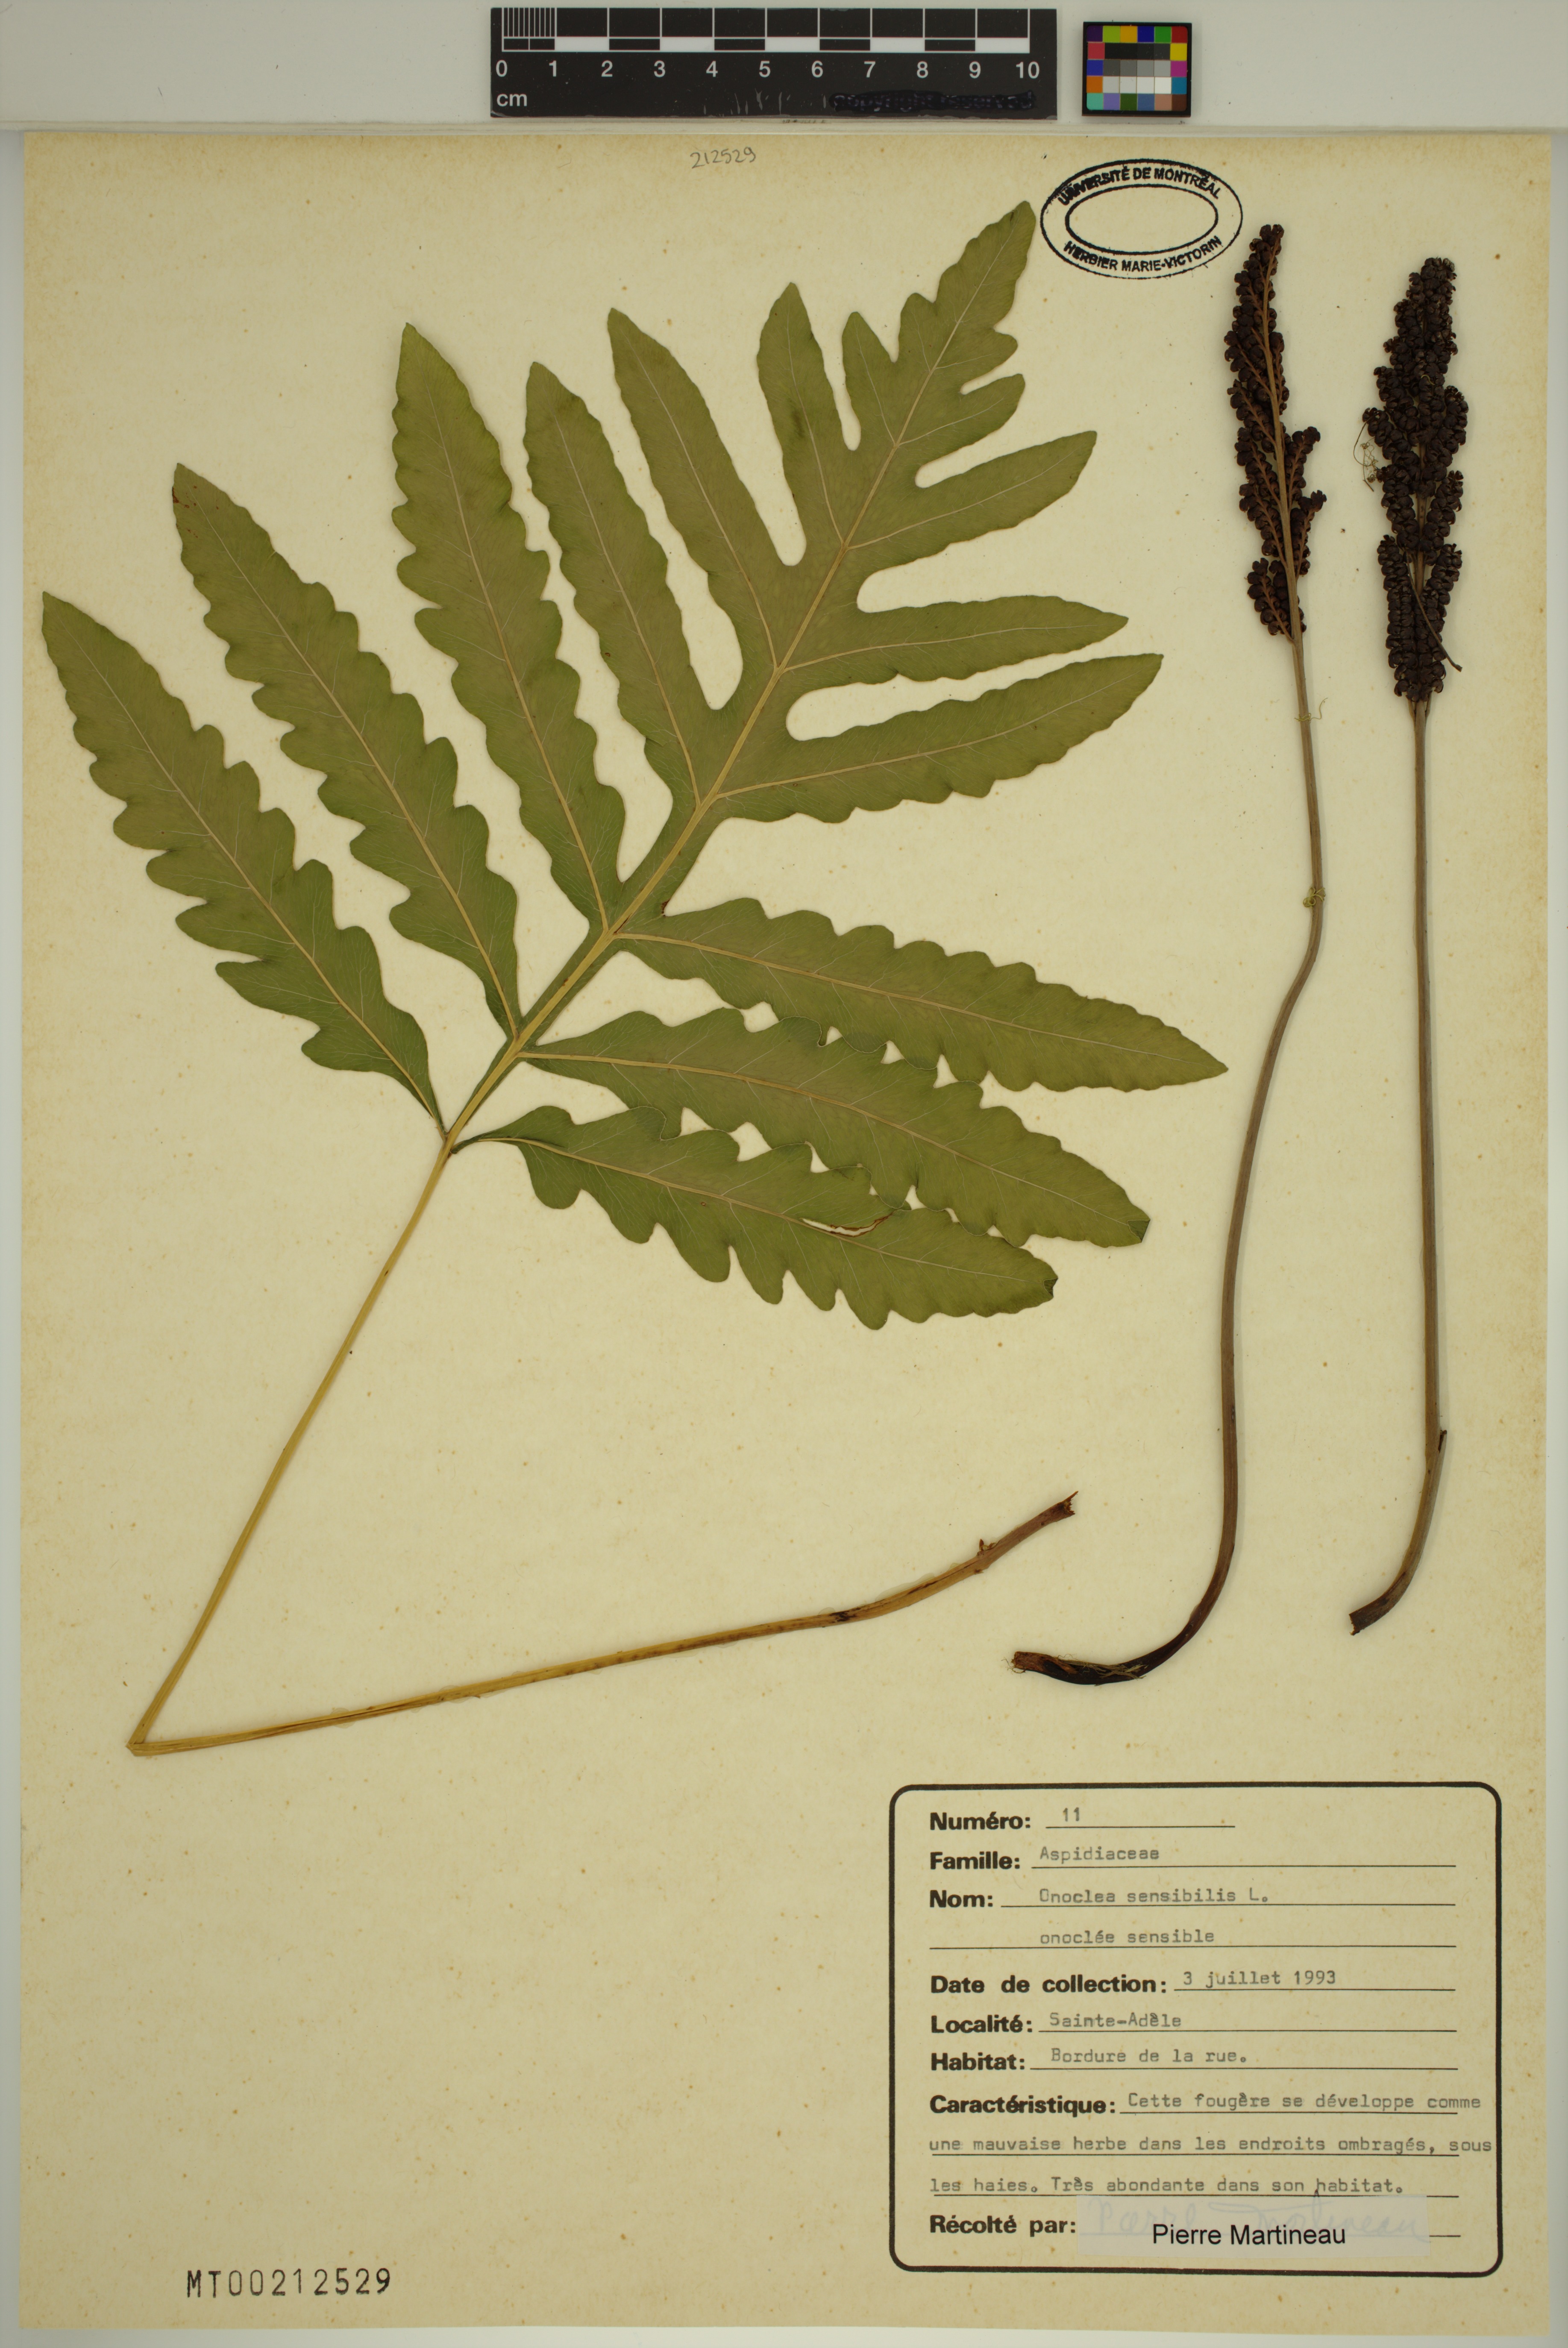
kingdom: Plantae
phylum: Tracheophyta
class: Polypodiopsida
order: Polypodiales
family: Onocleaceae
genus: Onoclea
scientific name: Onoclea sensibilis
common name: Sensitive fern
